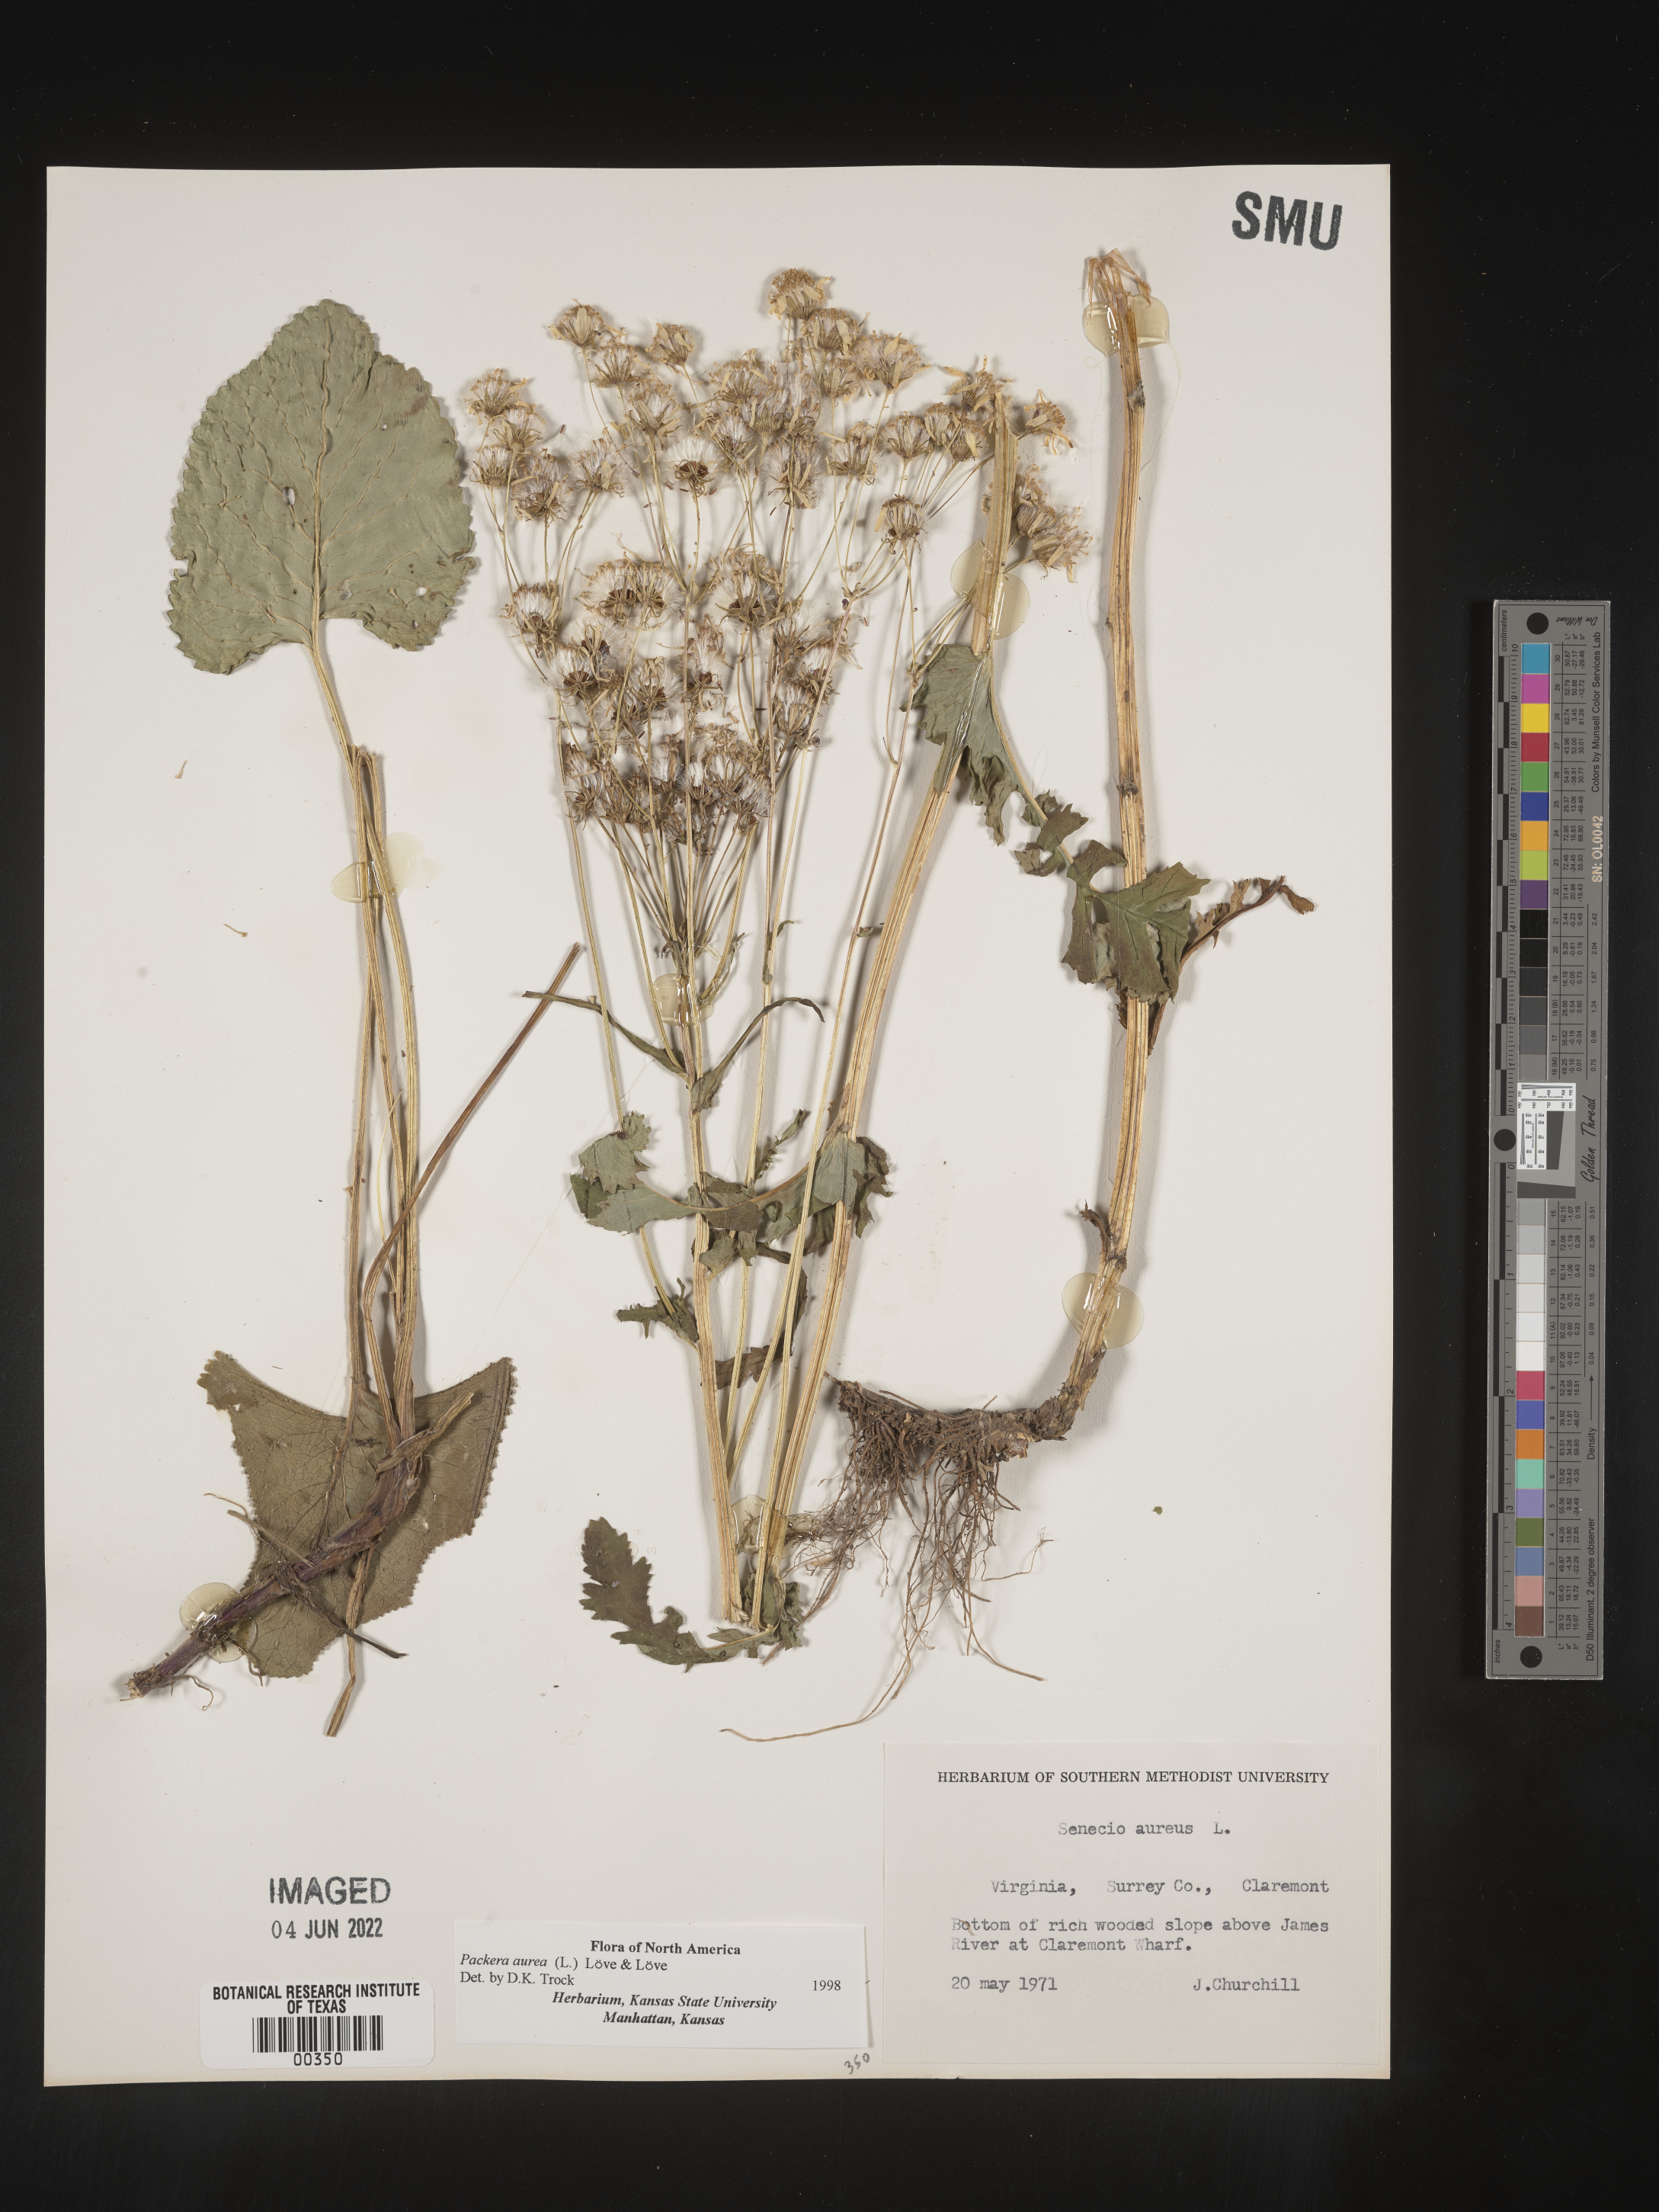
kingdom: Plantae
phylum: Tracheophyta
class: Magnoliopsida
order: Asterales
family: Asteraceae
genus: Packera
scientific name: Packera aurea
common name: Golden groundsel
